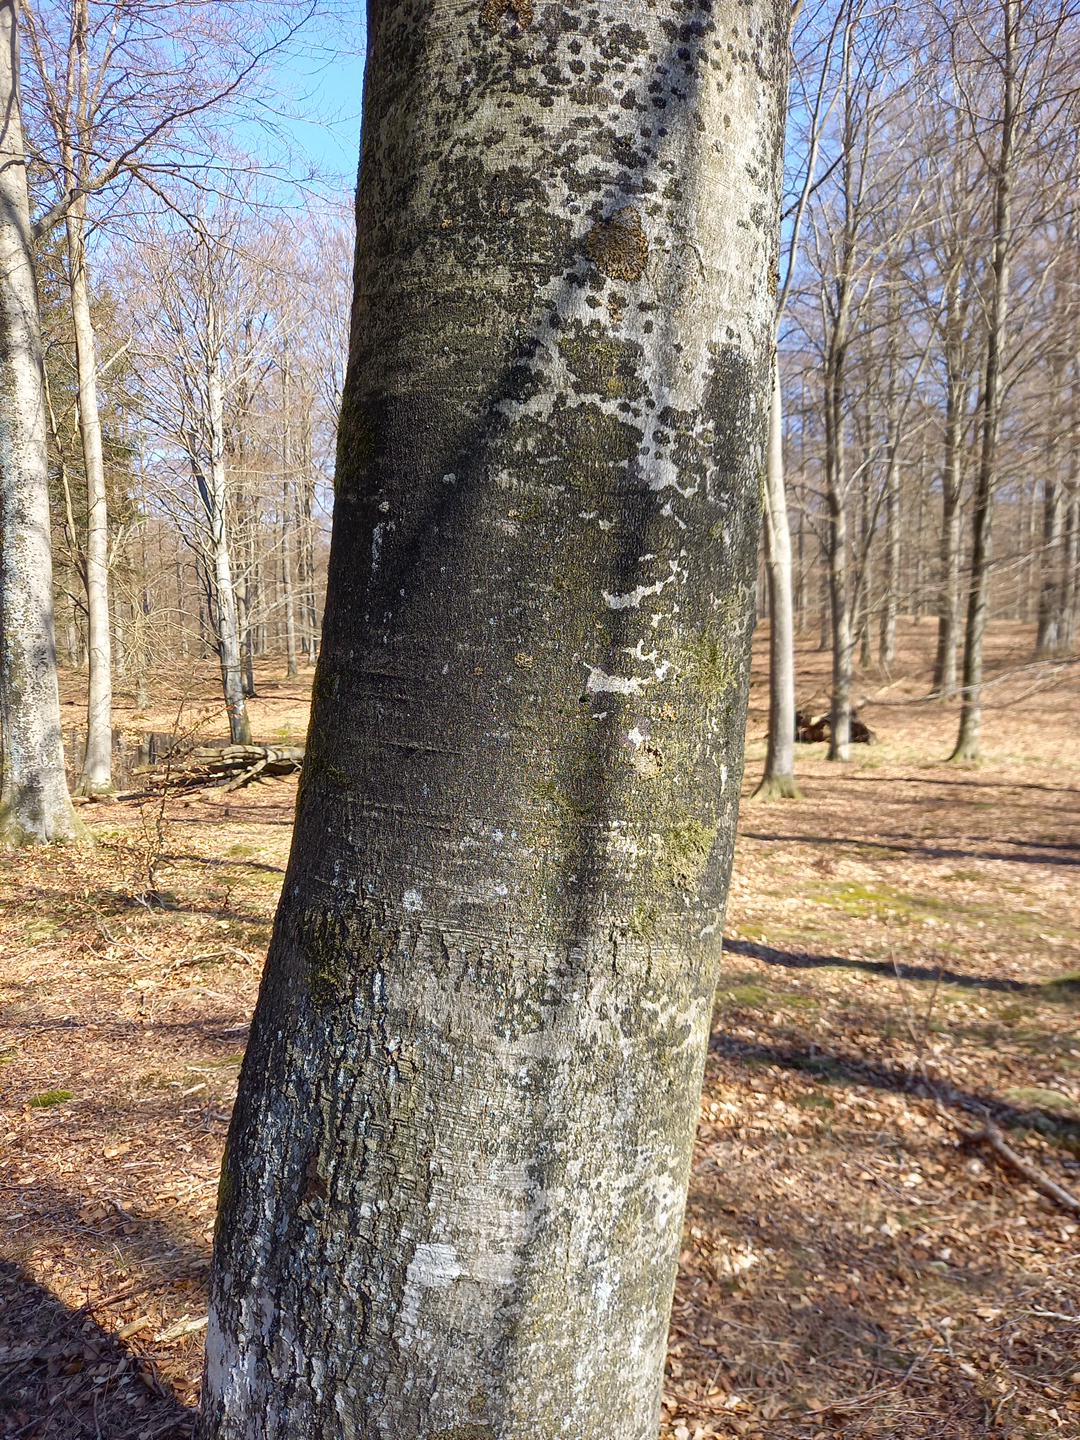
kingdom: Fungi
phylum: Ascomycota
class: Leotiomycetes
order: Rhytismatales
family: Ascodichaenaceae
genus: Ascodichaena
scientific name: Ascodichaena rugosa
